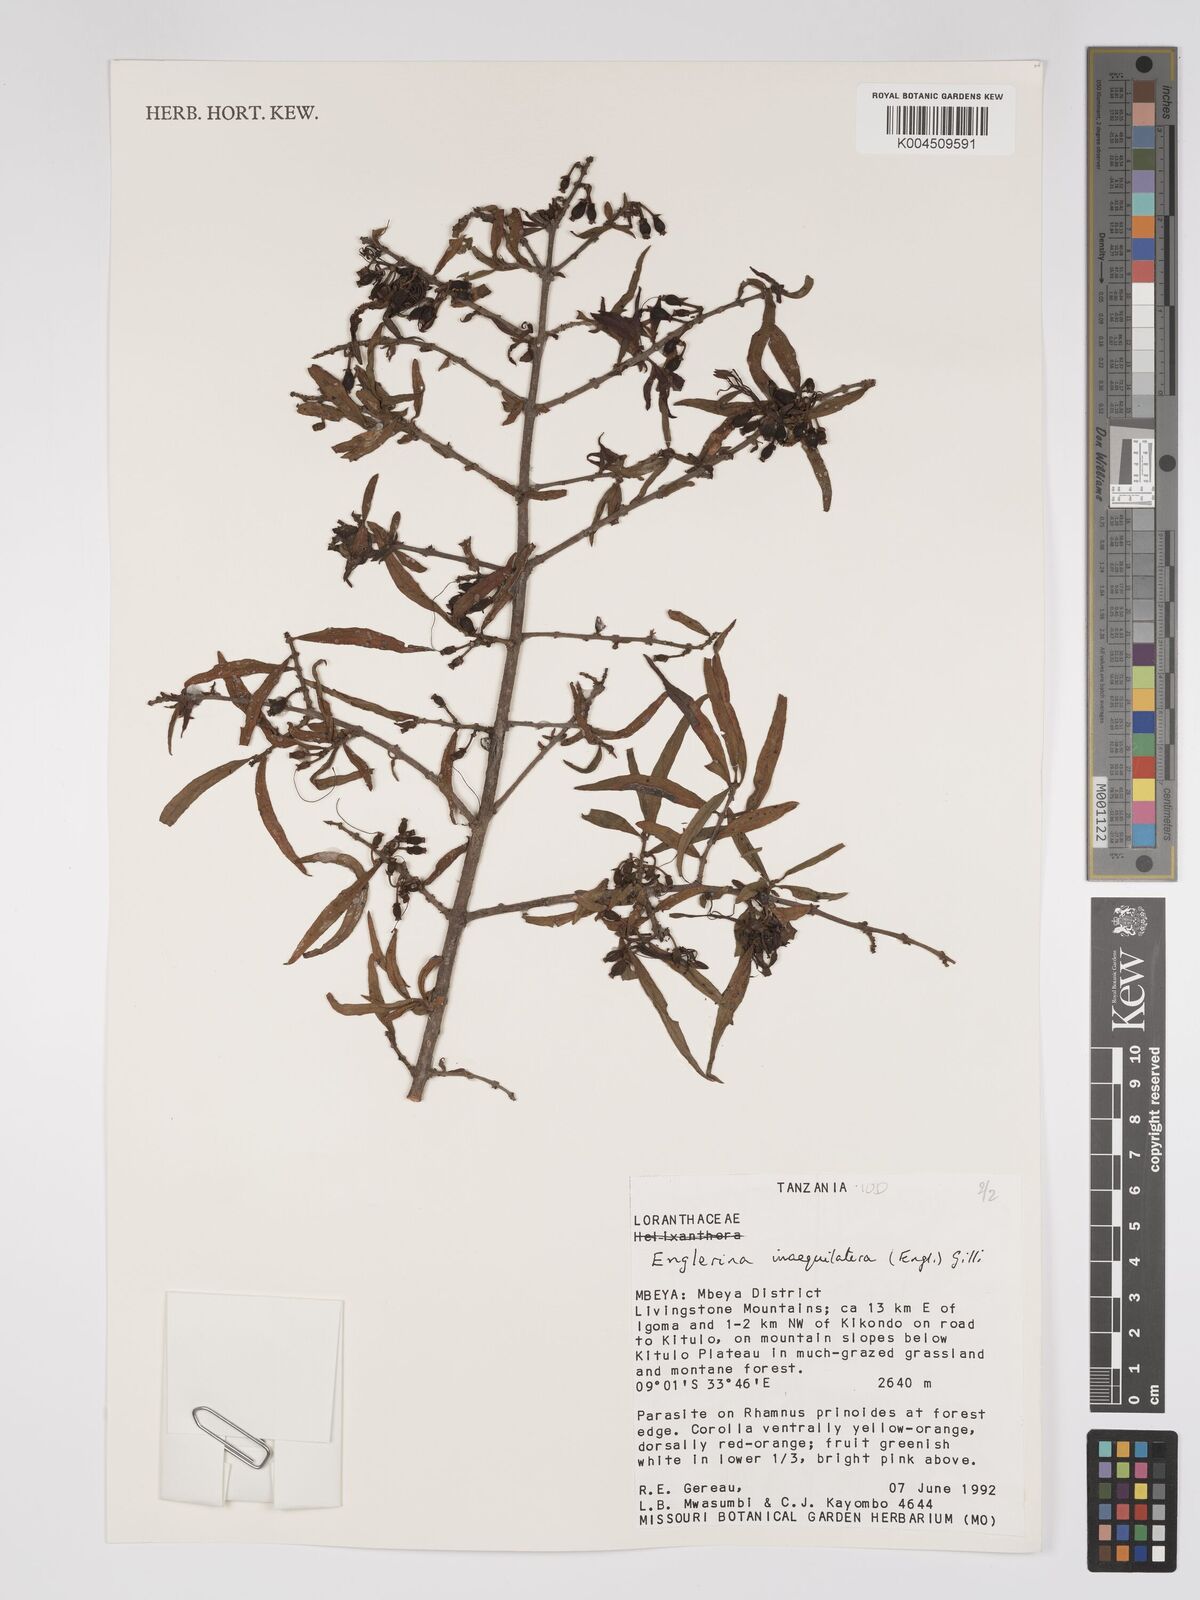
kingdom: Plantae
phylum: Tracheophyta
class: Magnoliopsida
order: Santalales
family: Loranthaceae
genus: Englerina
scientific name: Englerina inaequilatera
